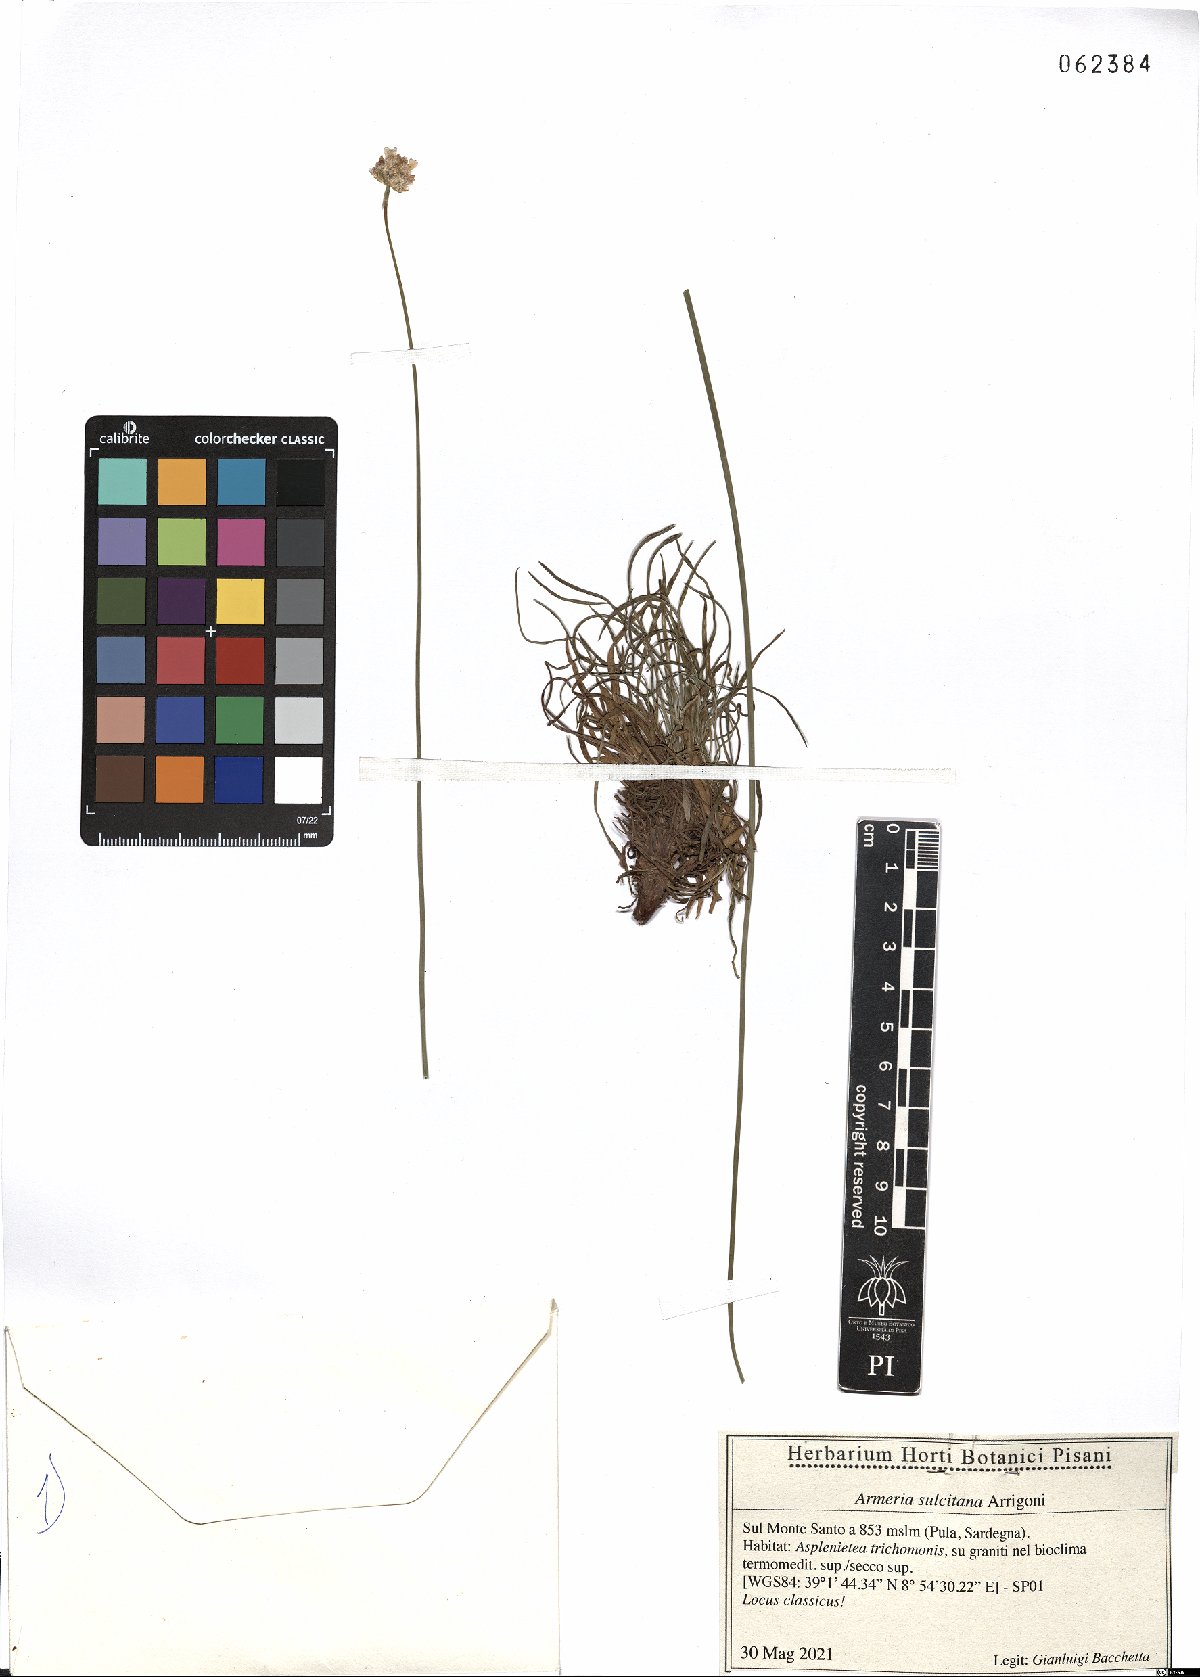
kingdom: Plantae
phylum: Tracheophyta
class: Magnoliopsida
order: Caryophyllales
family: Plumbaginaceae
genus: Armeria
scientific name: Armeria sulcitana
